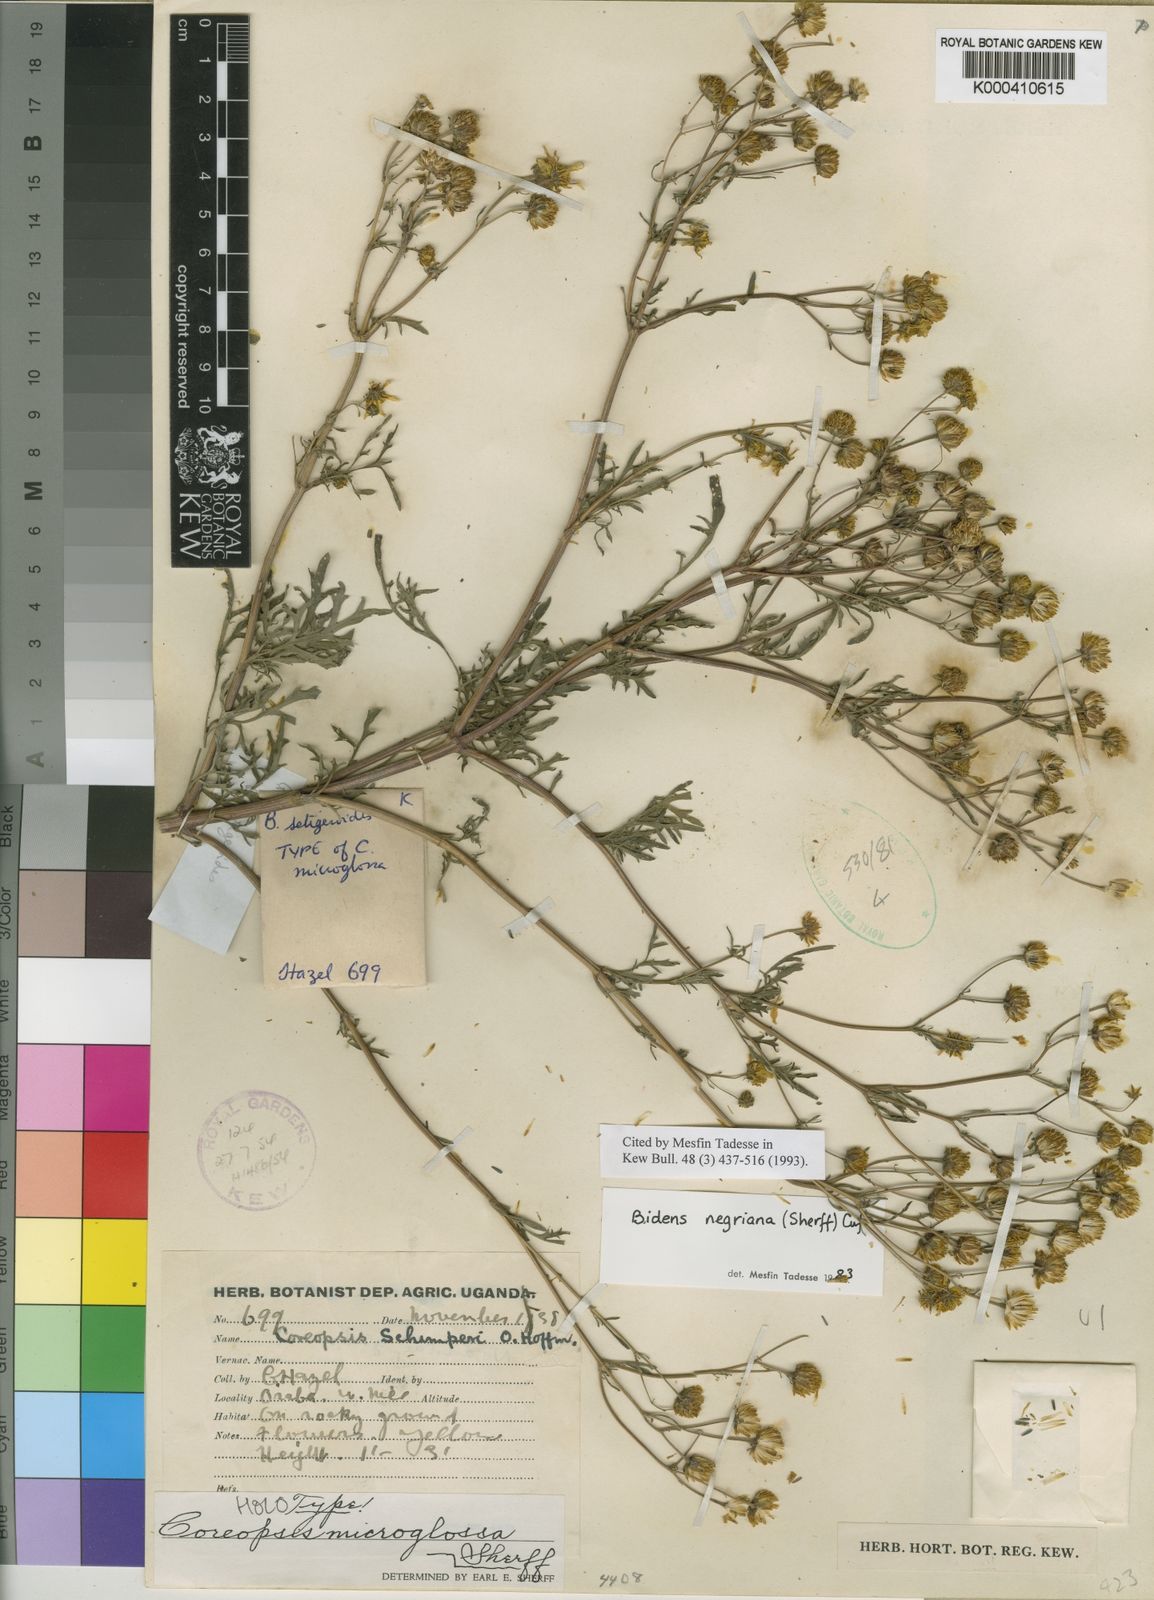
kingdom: Plantae
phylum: Tracheophyta
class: Magnoliopsida
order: Asterales
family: Asteraceae
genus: Bidens
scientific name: Bidens negriana
